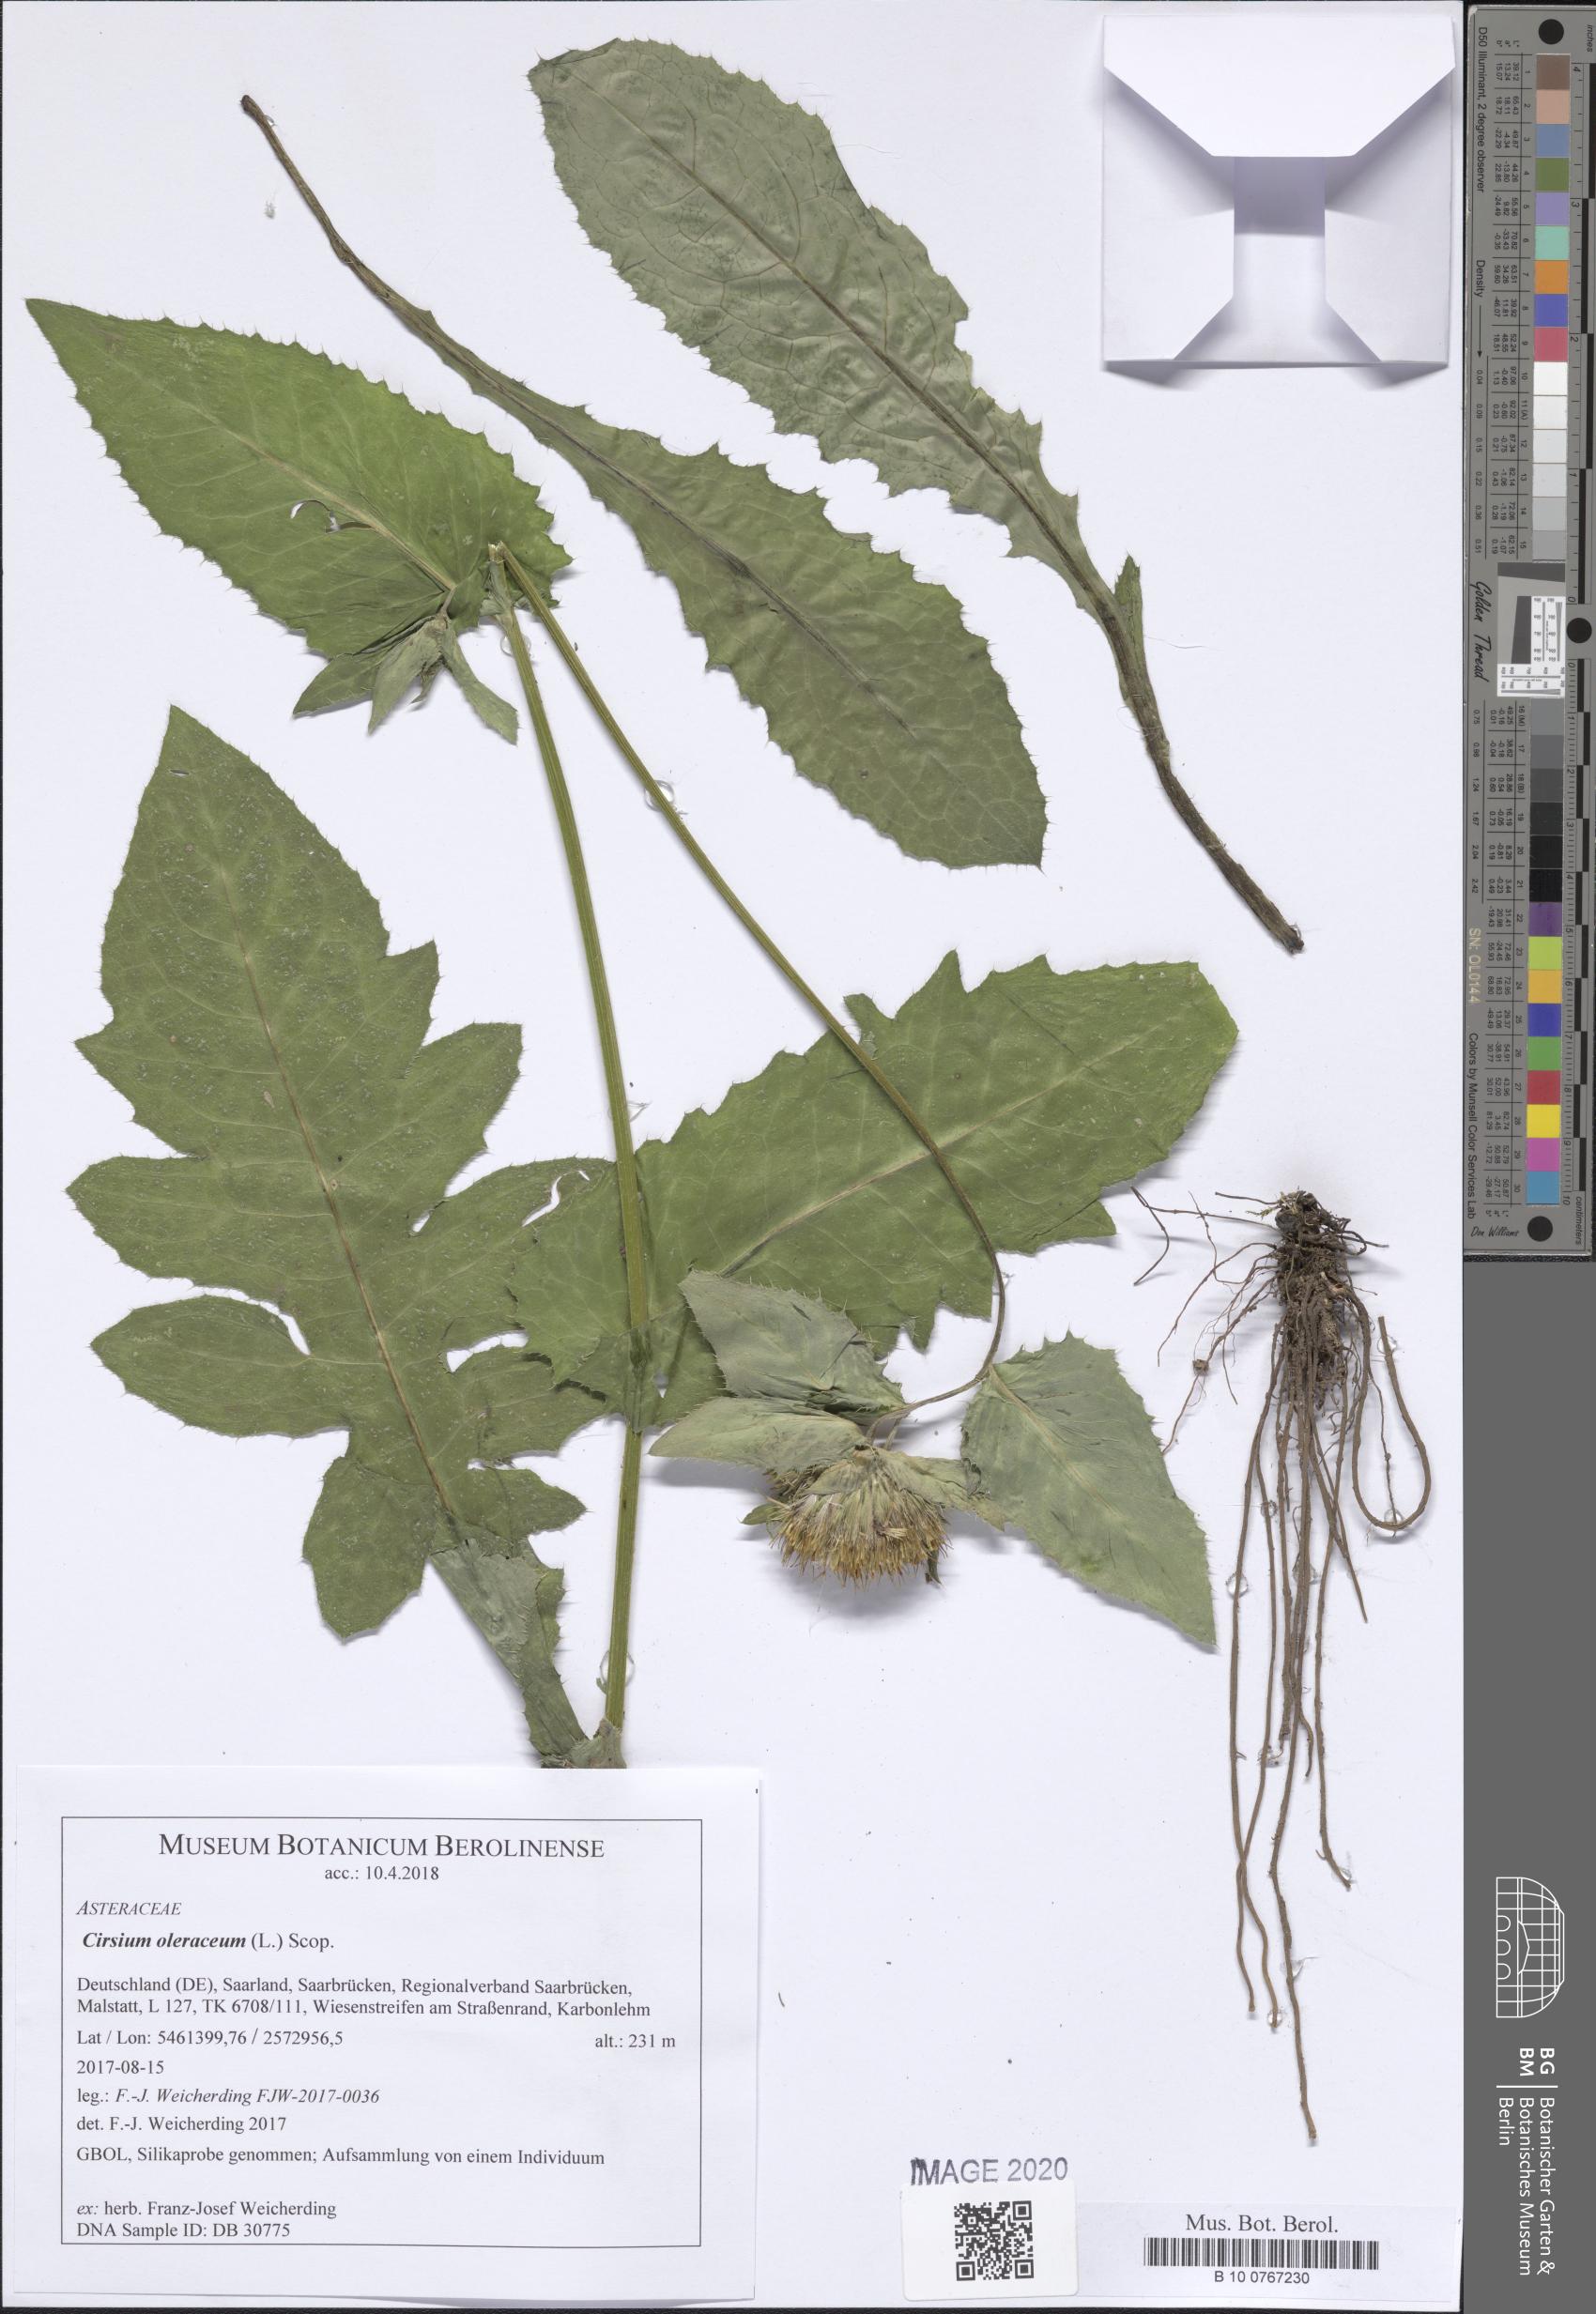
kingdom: Plantae
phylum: Tracheophyta
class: Magnoliopsida
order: Asterales
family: Asteraceae
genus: Cirsium
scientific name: Cirsium oleraceum
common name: Cabbage thistle
